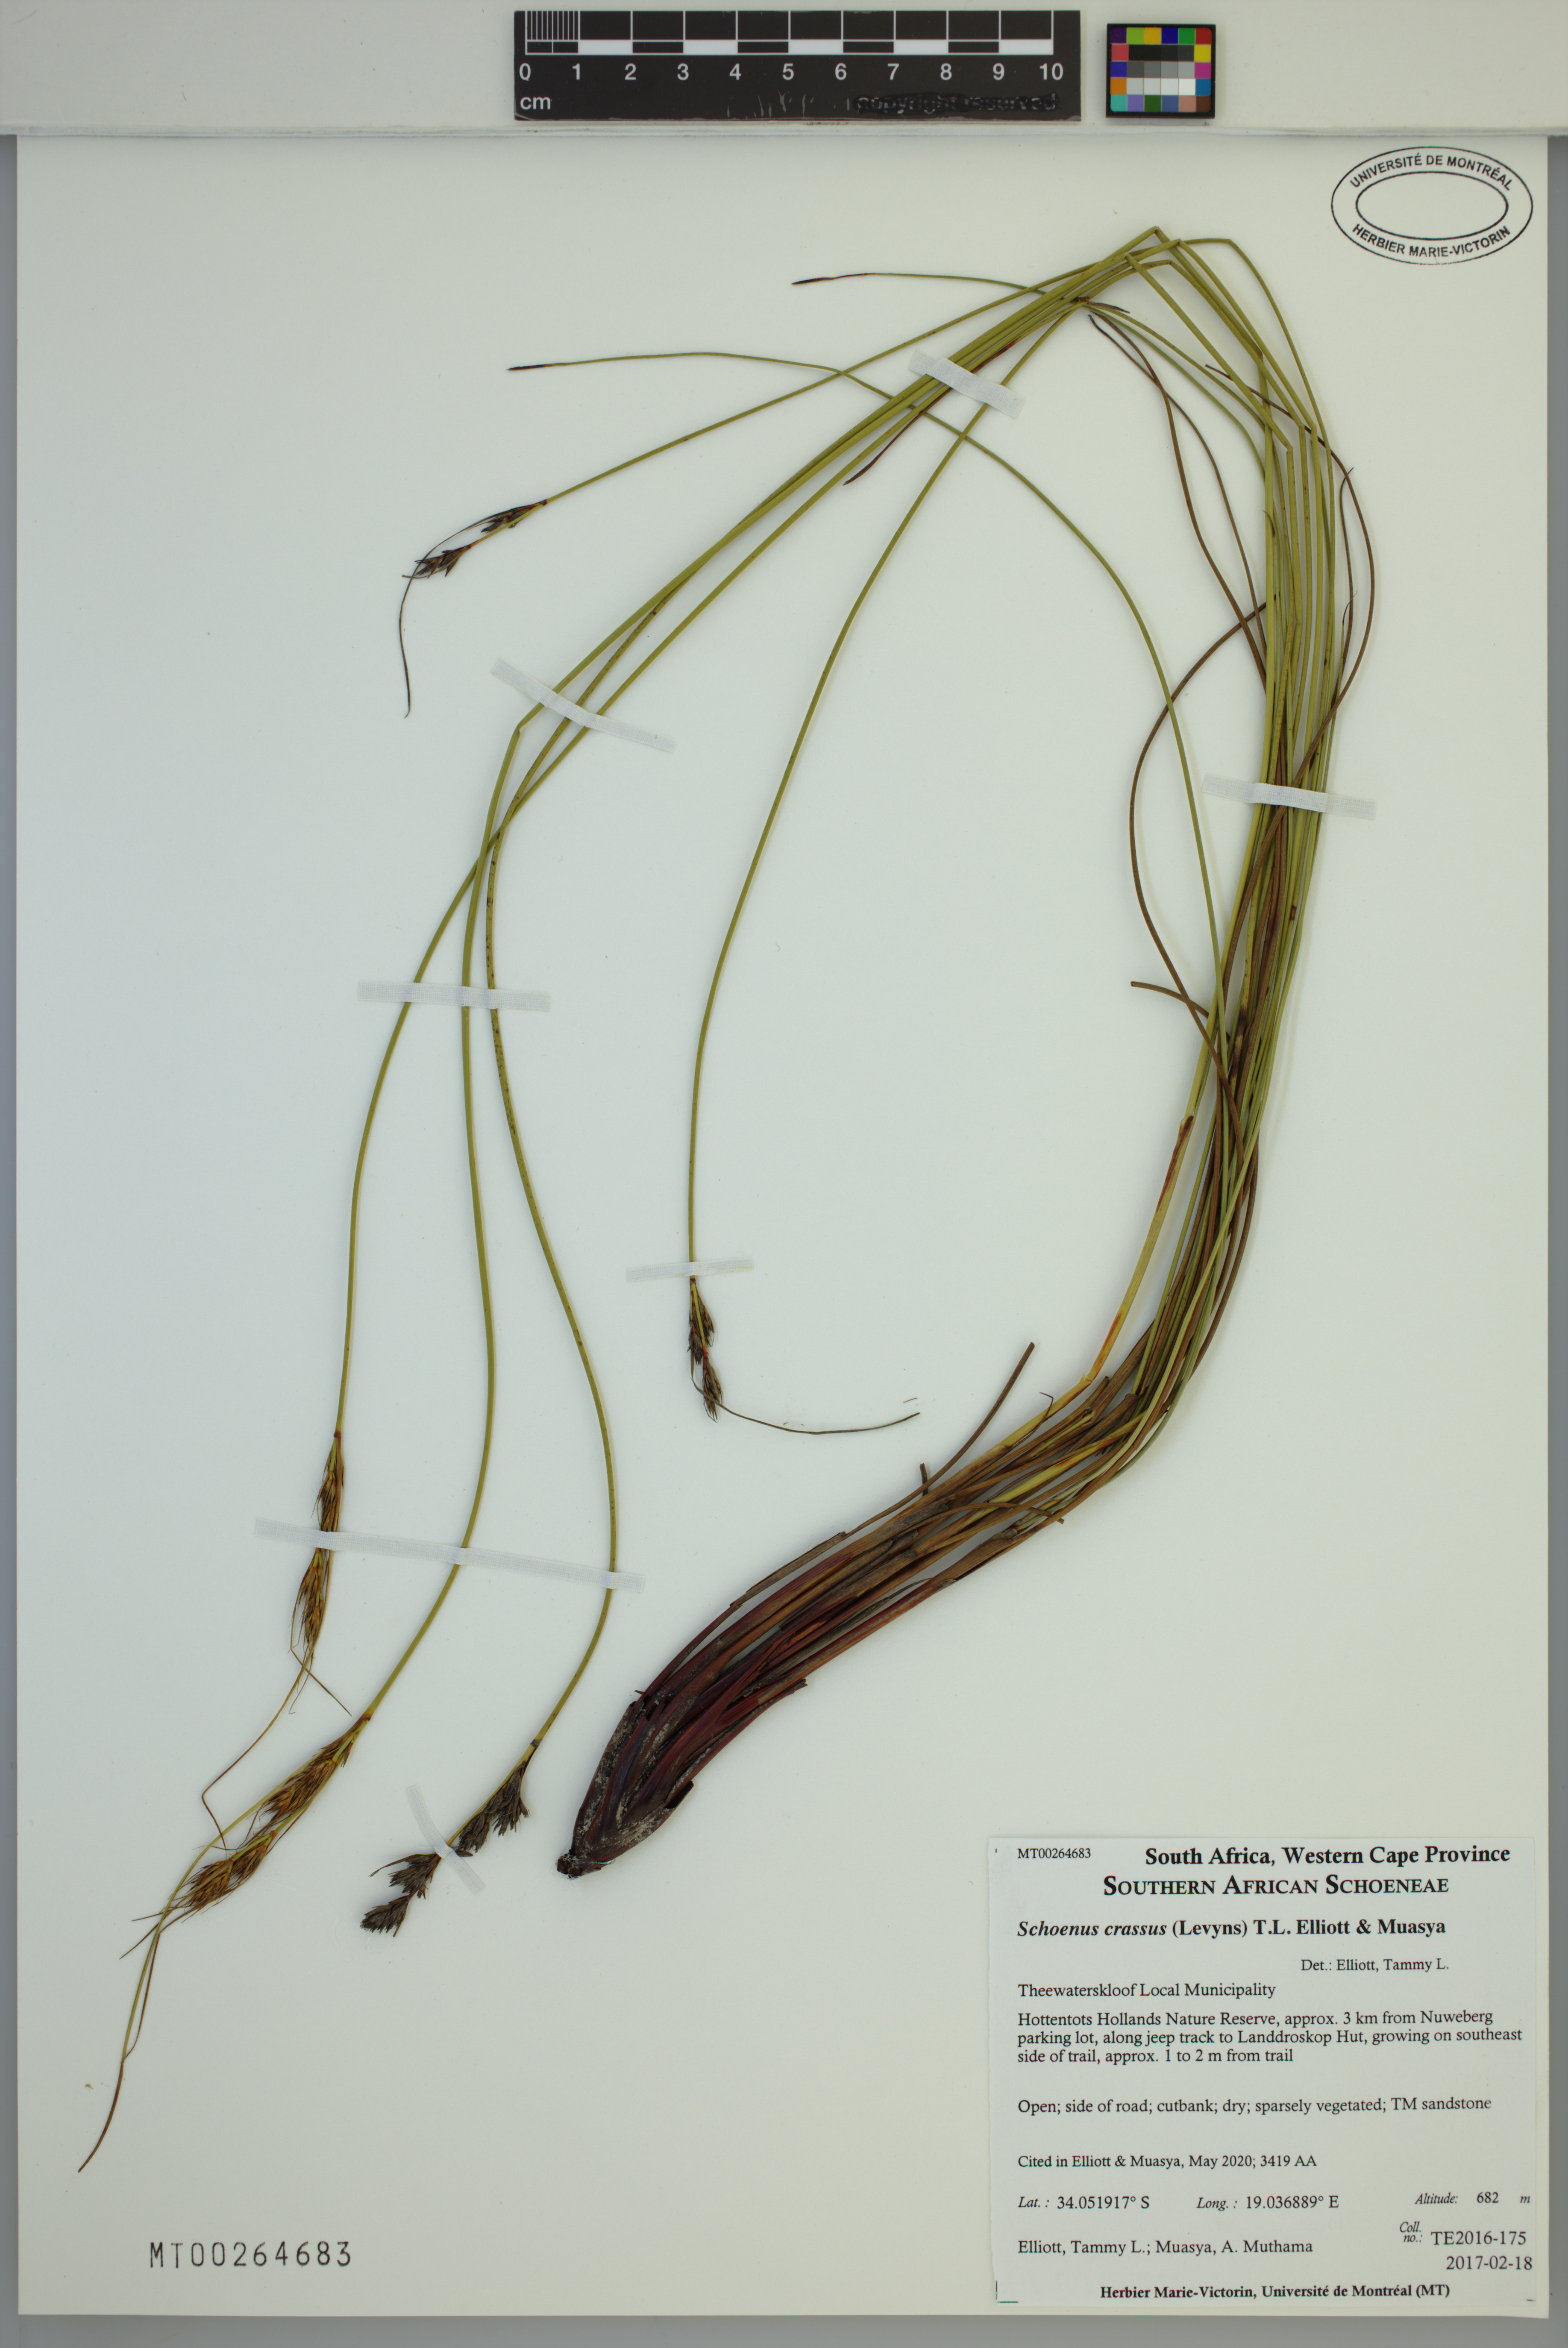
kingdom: Plantae
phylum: Tracheophyta
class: Liliopsida
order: Poales
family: Cyperaceae
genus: Schoenus
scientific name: Schoenus crassus
